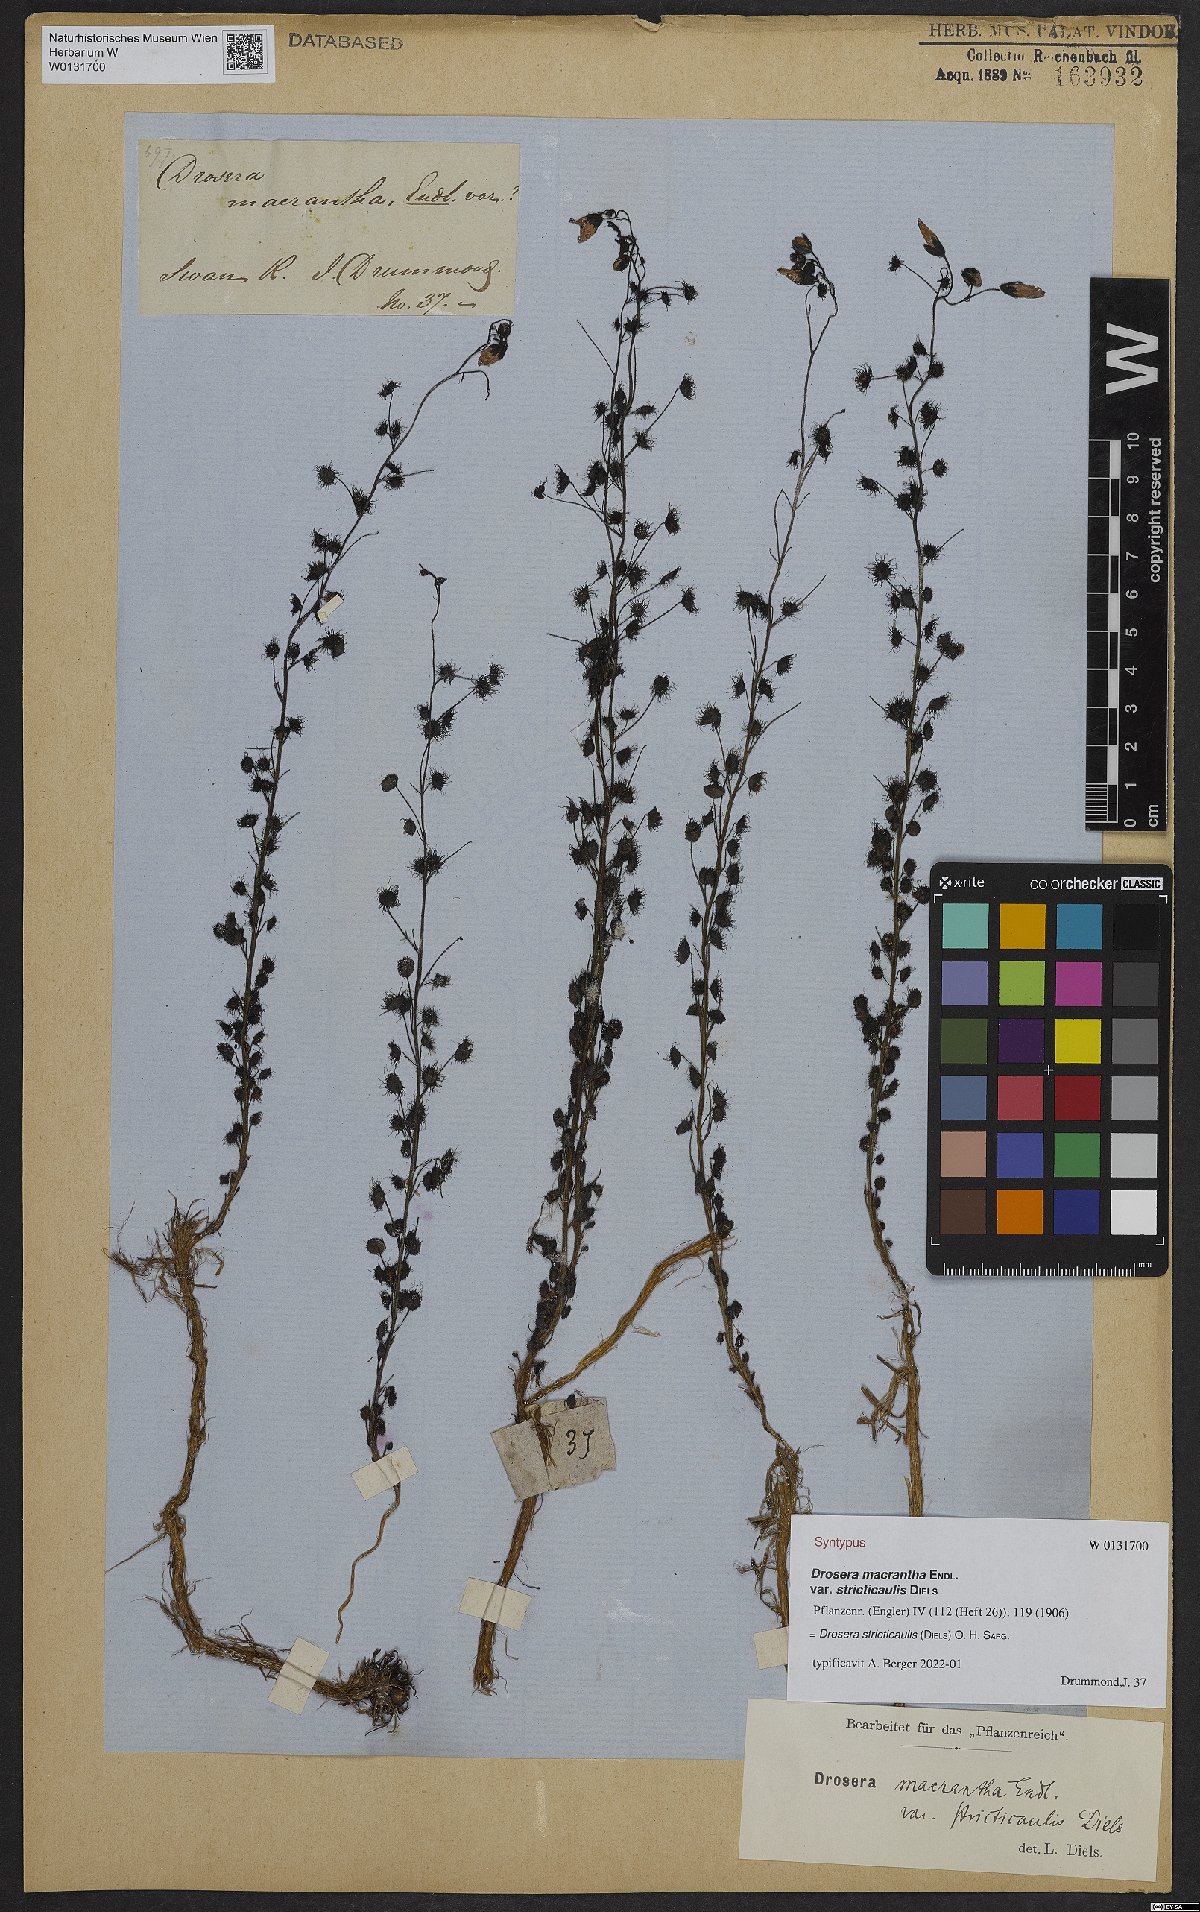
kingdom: Plantae
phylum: Tracheophyta
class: Magnoliopsida
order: Caryophyllales
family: Droseraceae
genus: Drosera
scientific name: Drosera stricticaulis
